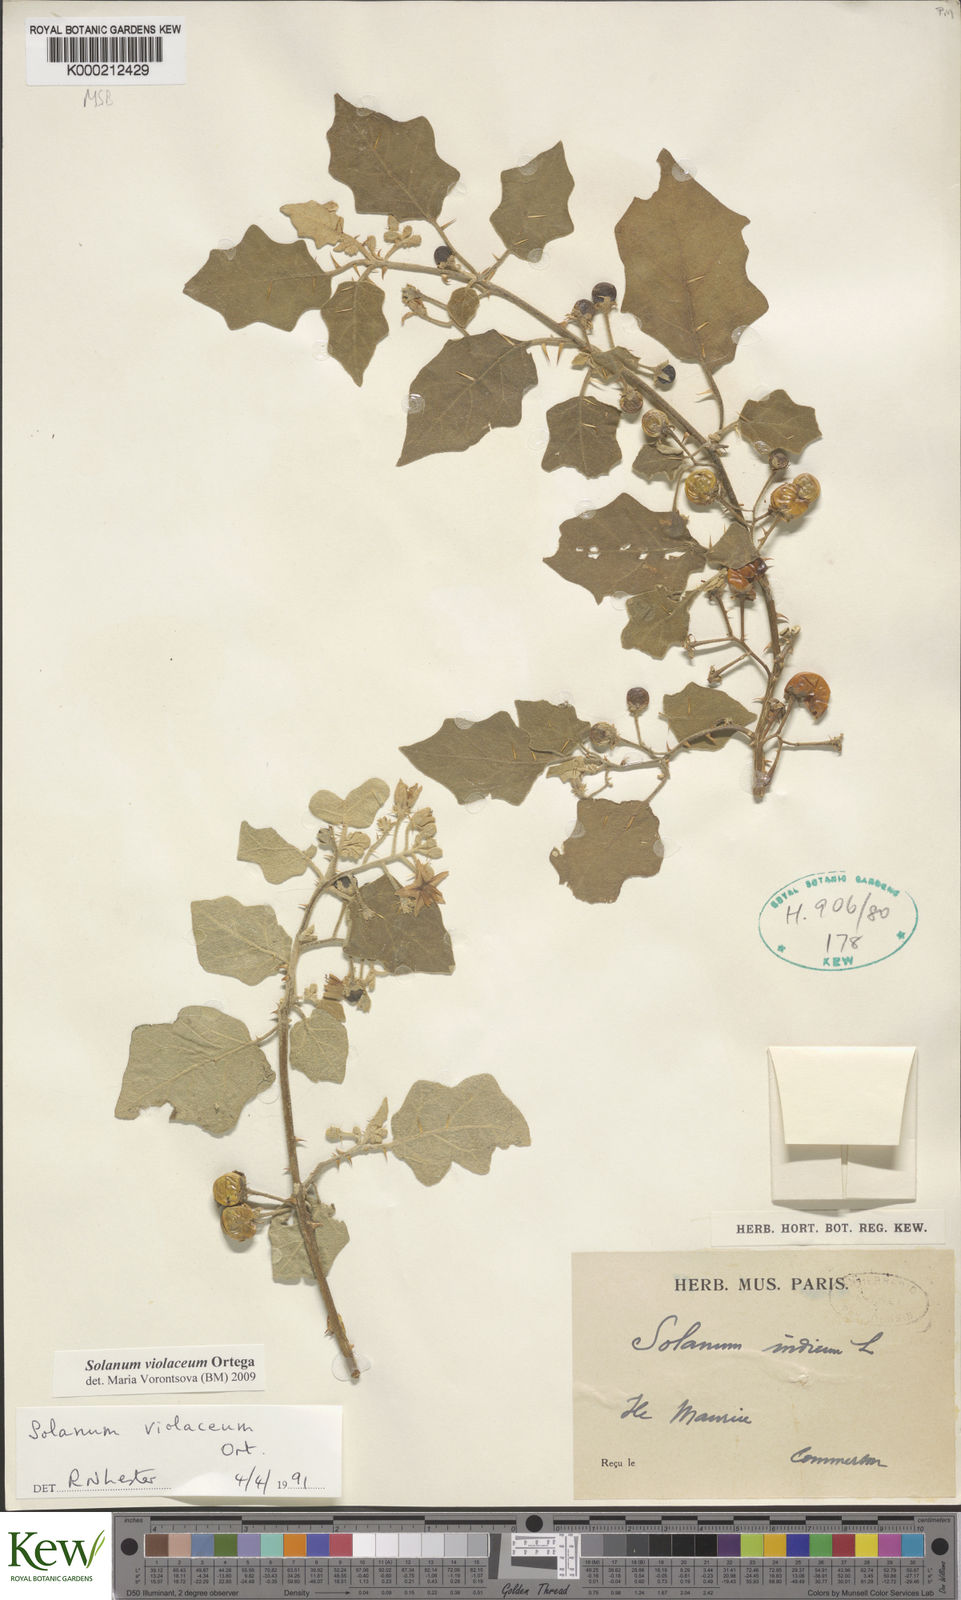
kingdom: Plantae
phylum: Tracheophyta
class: Magnoliopsida
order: Solanales
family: Solanaceae
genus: Solanum
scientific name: Solanum violaceum
